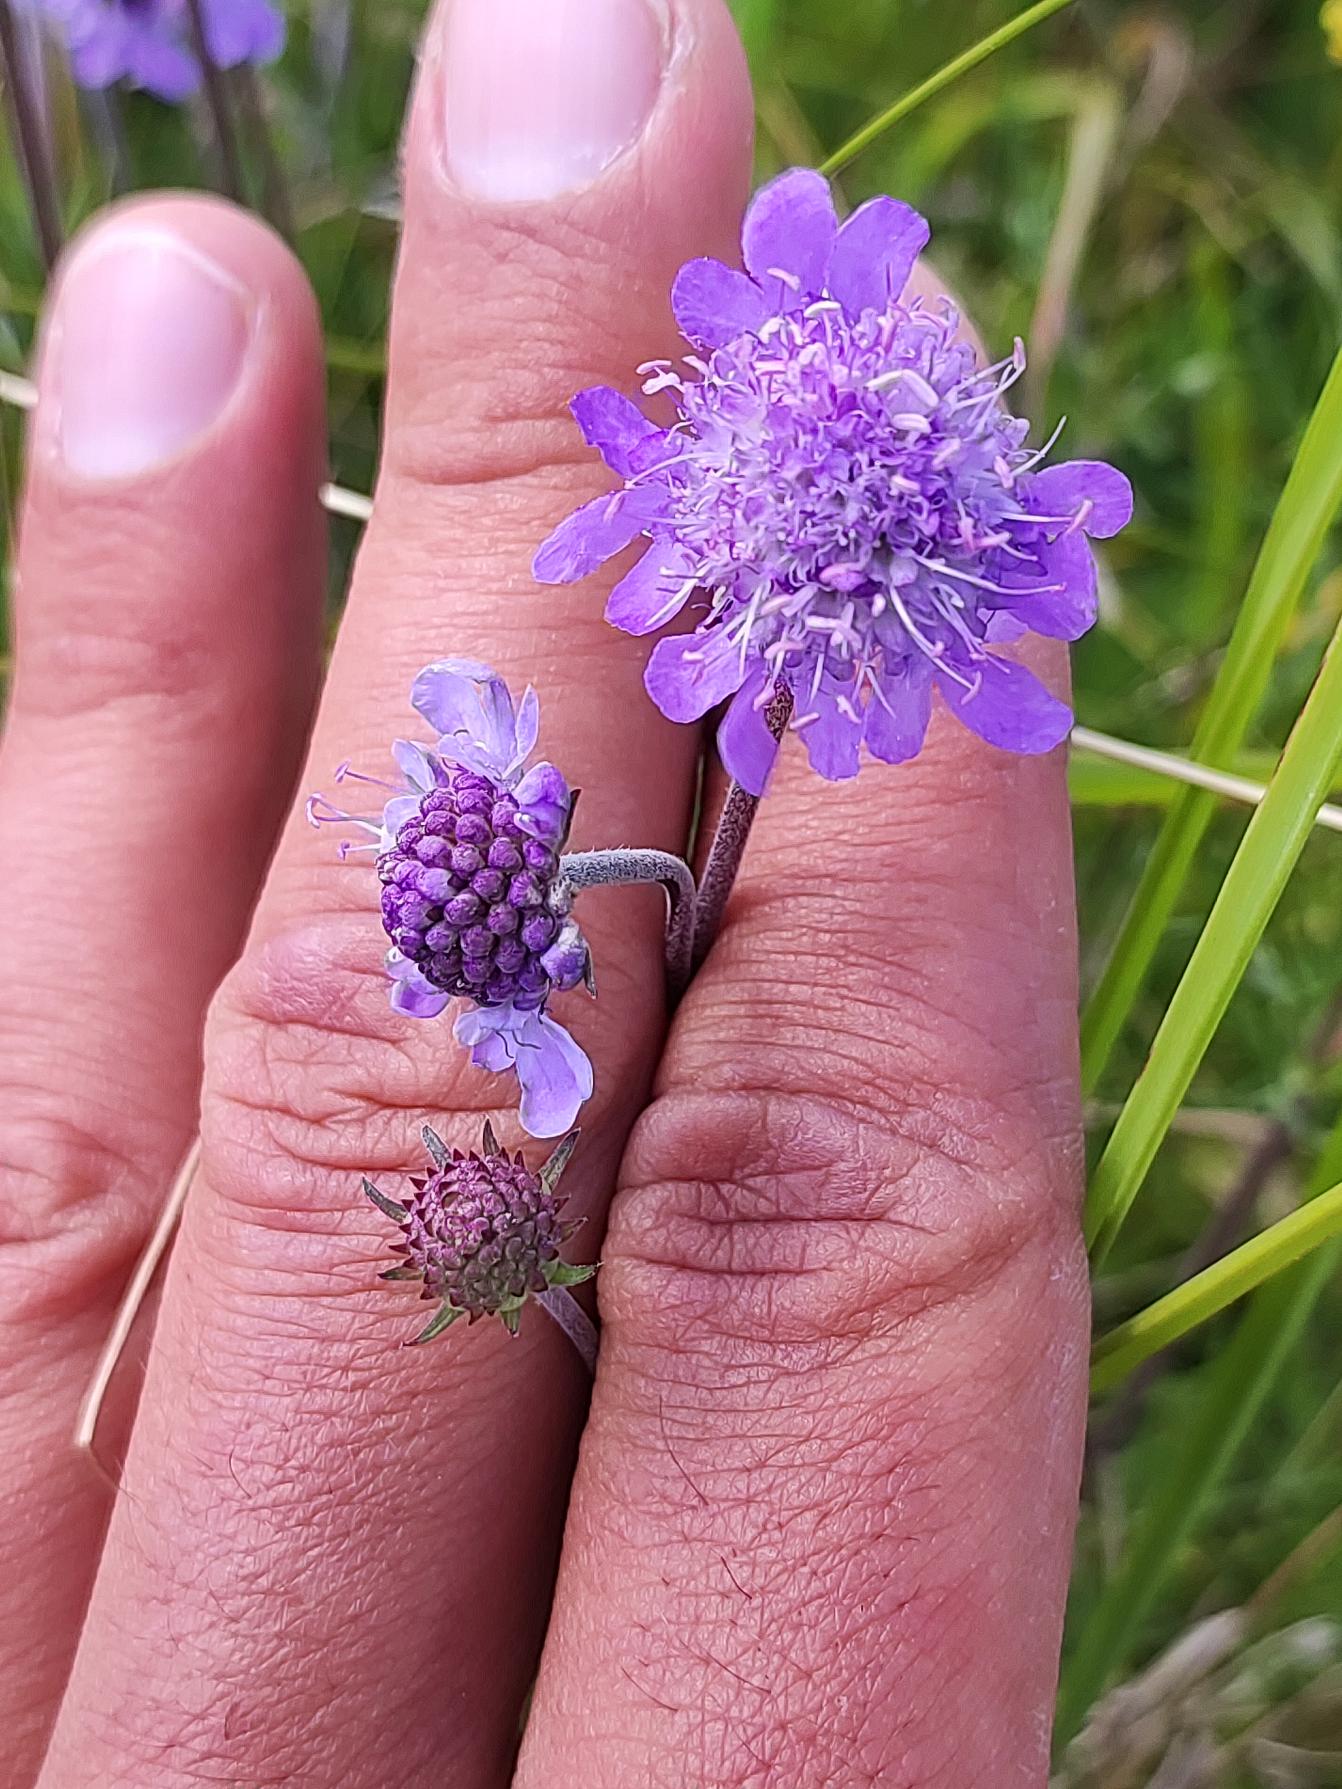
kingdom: Plantae
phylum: Tracheophyta
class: Magnoliopsida
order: Dipsacales
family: Caprifoliaceae
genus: Scabiosa
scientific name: Scabiosa canescens
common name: Vellugtende skabiose
